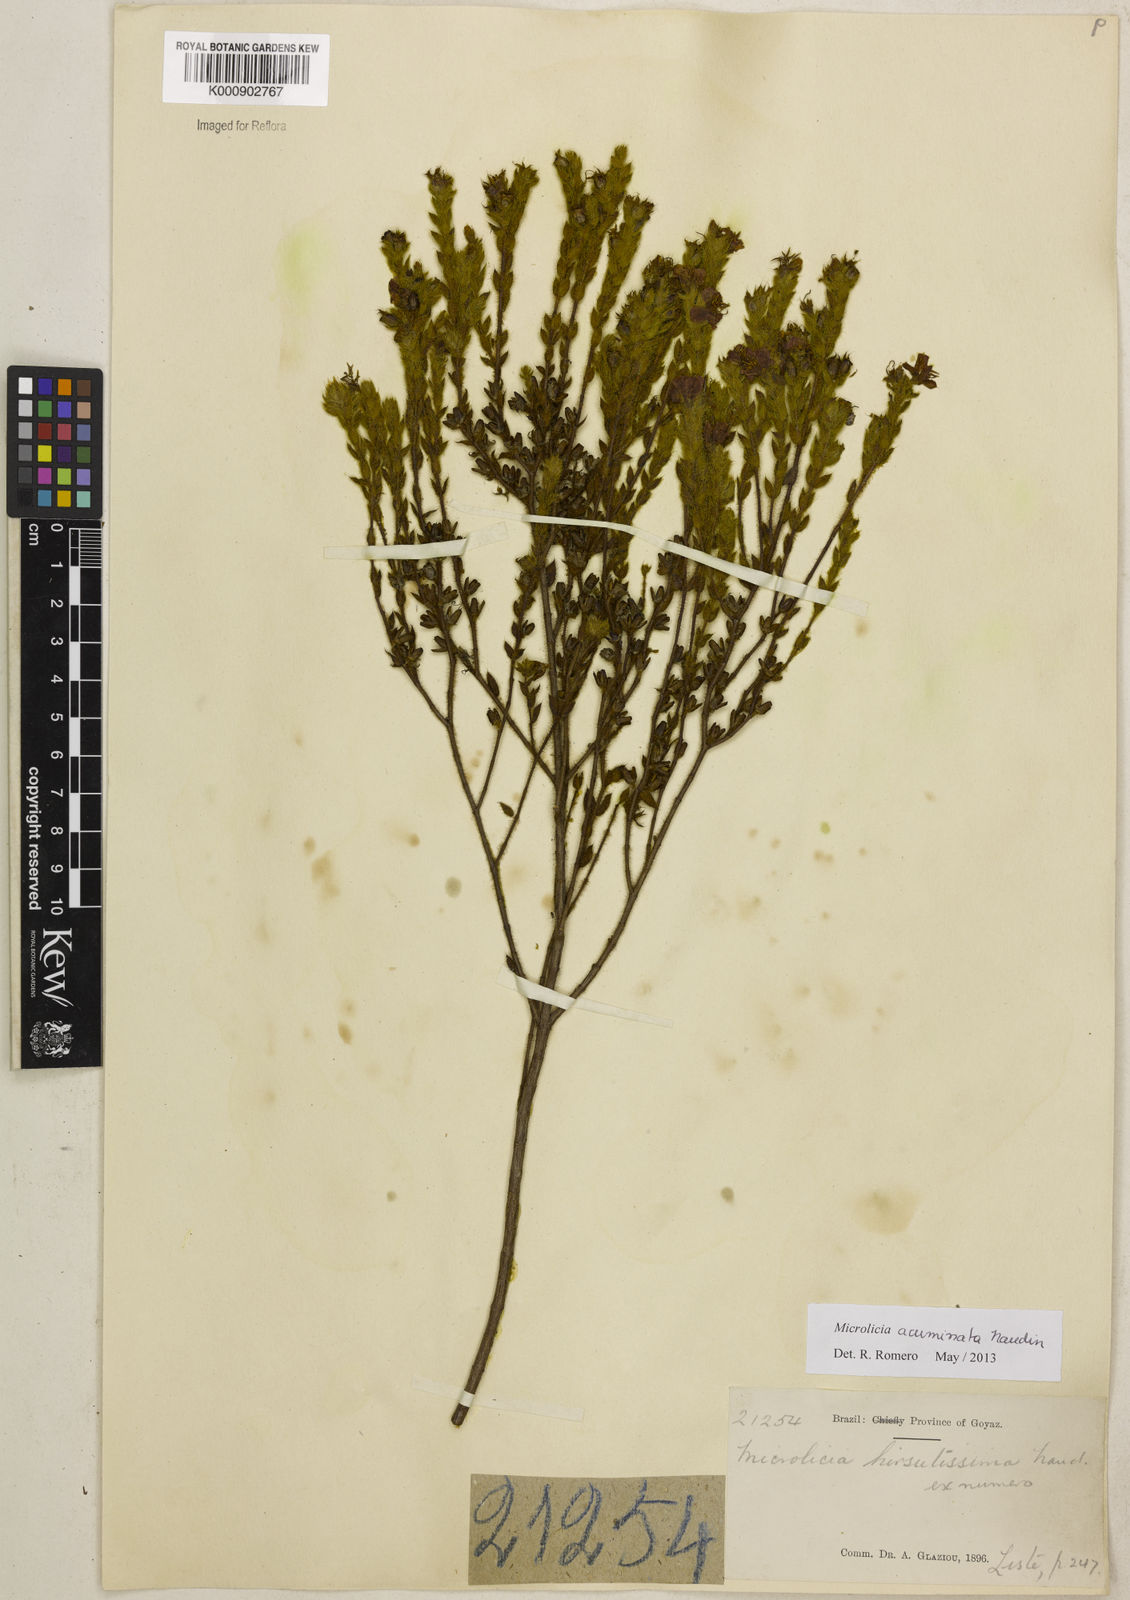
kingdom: Plantae
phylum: Tracheophyta
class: Magnoliopsida
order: Myrtales
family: Melastomataceae
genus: Microlicia
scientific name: Microlicia
